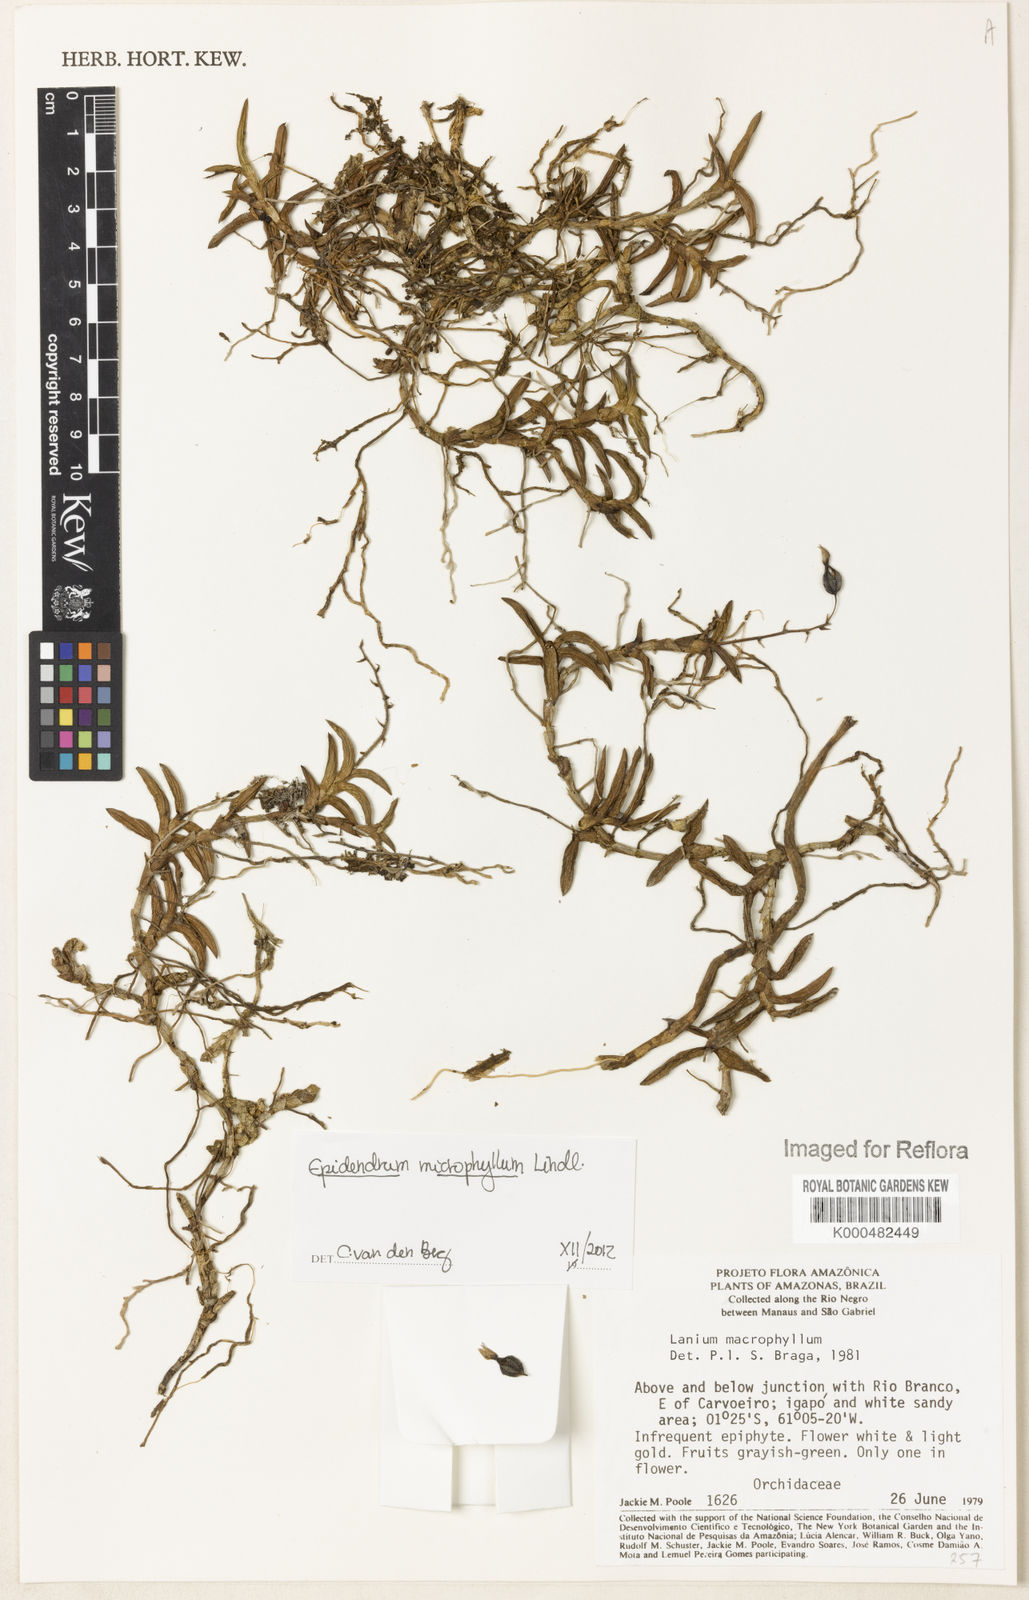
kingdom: Plantae
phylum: Tracheophyta
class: Liliopsida
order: Asparagales
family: Orchidaceae
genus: Epidendrum
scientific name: Epidendrum microphyllum
